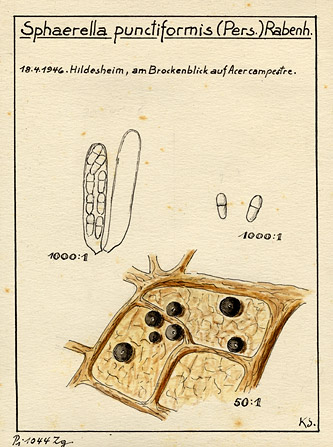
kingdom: Plantae
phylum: Tracheophyta
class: Magnoliopsida
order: Sapindales
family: Sapindaceae
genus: Acer
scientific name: Acer campestre
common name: Field maple
